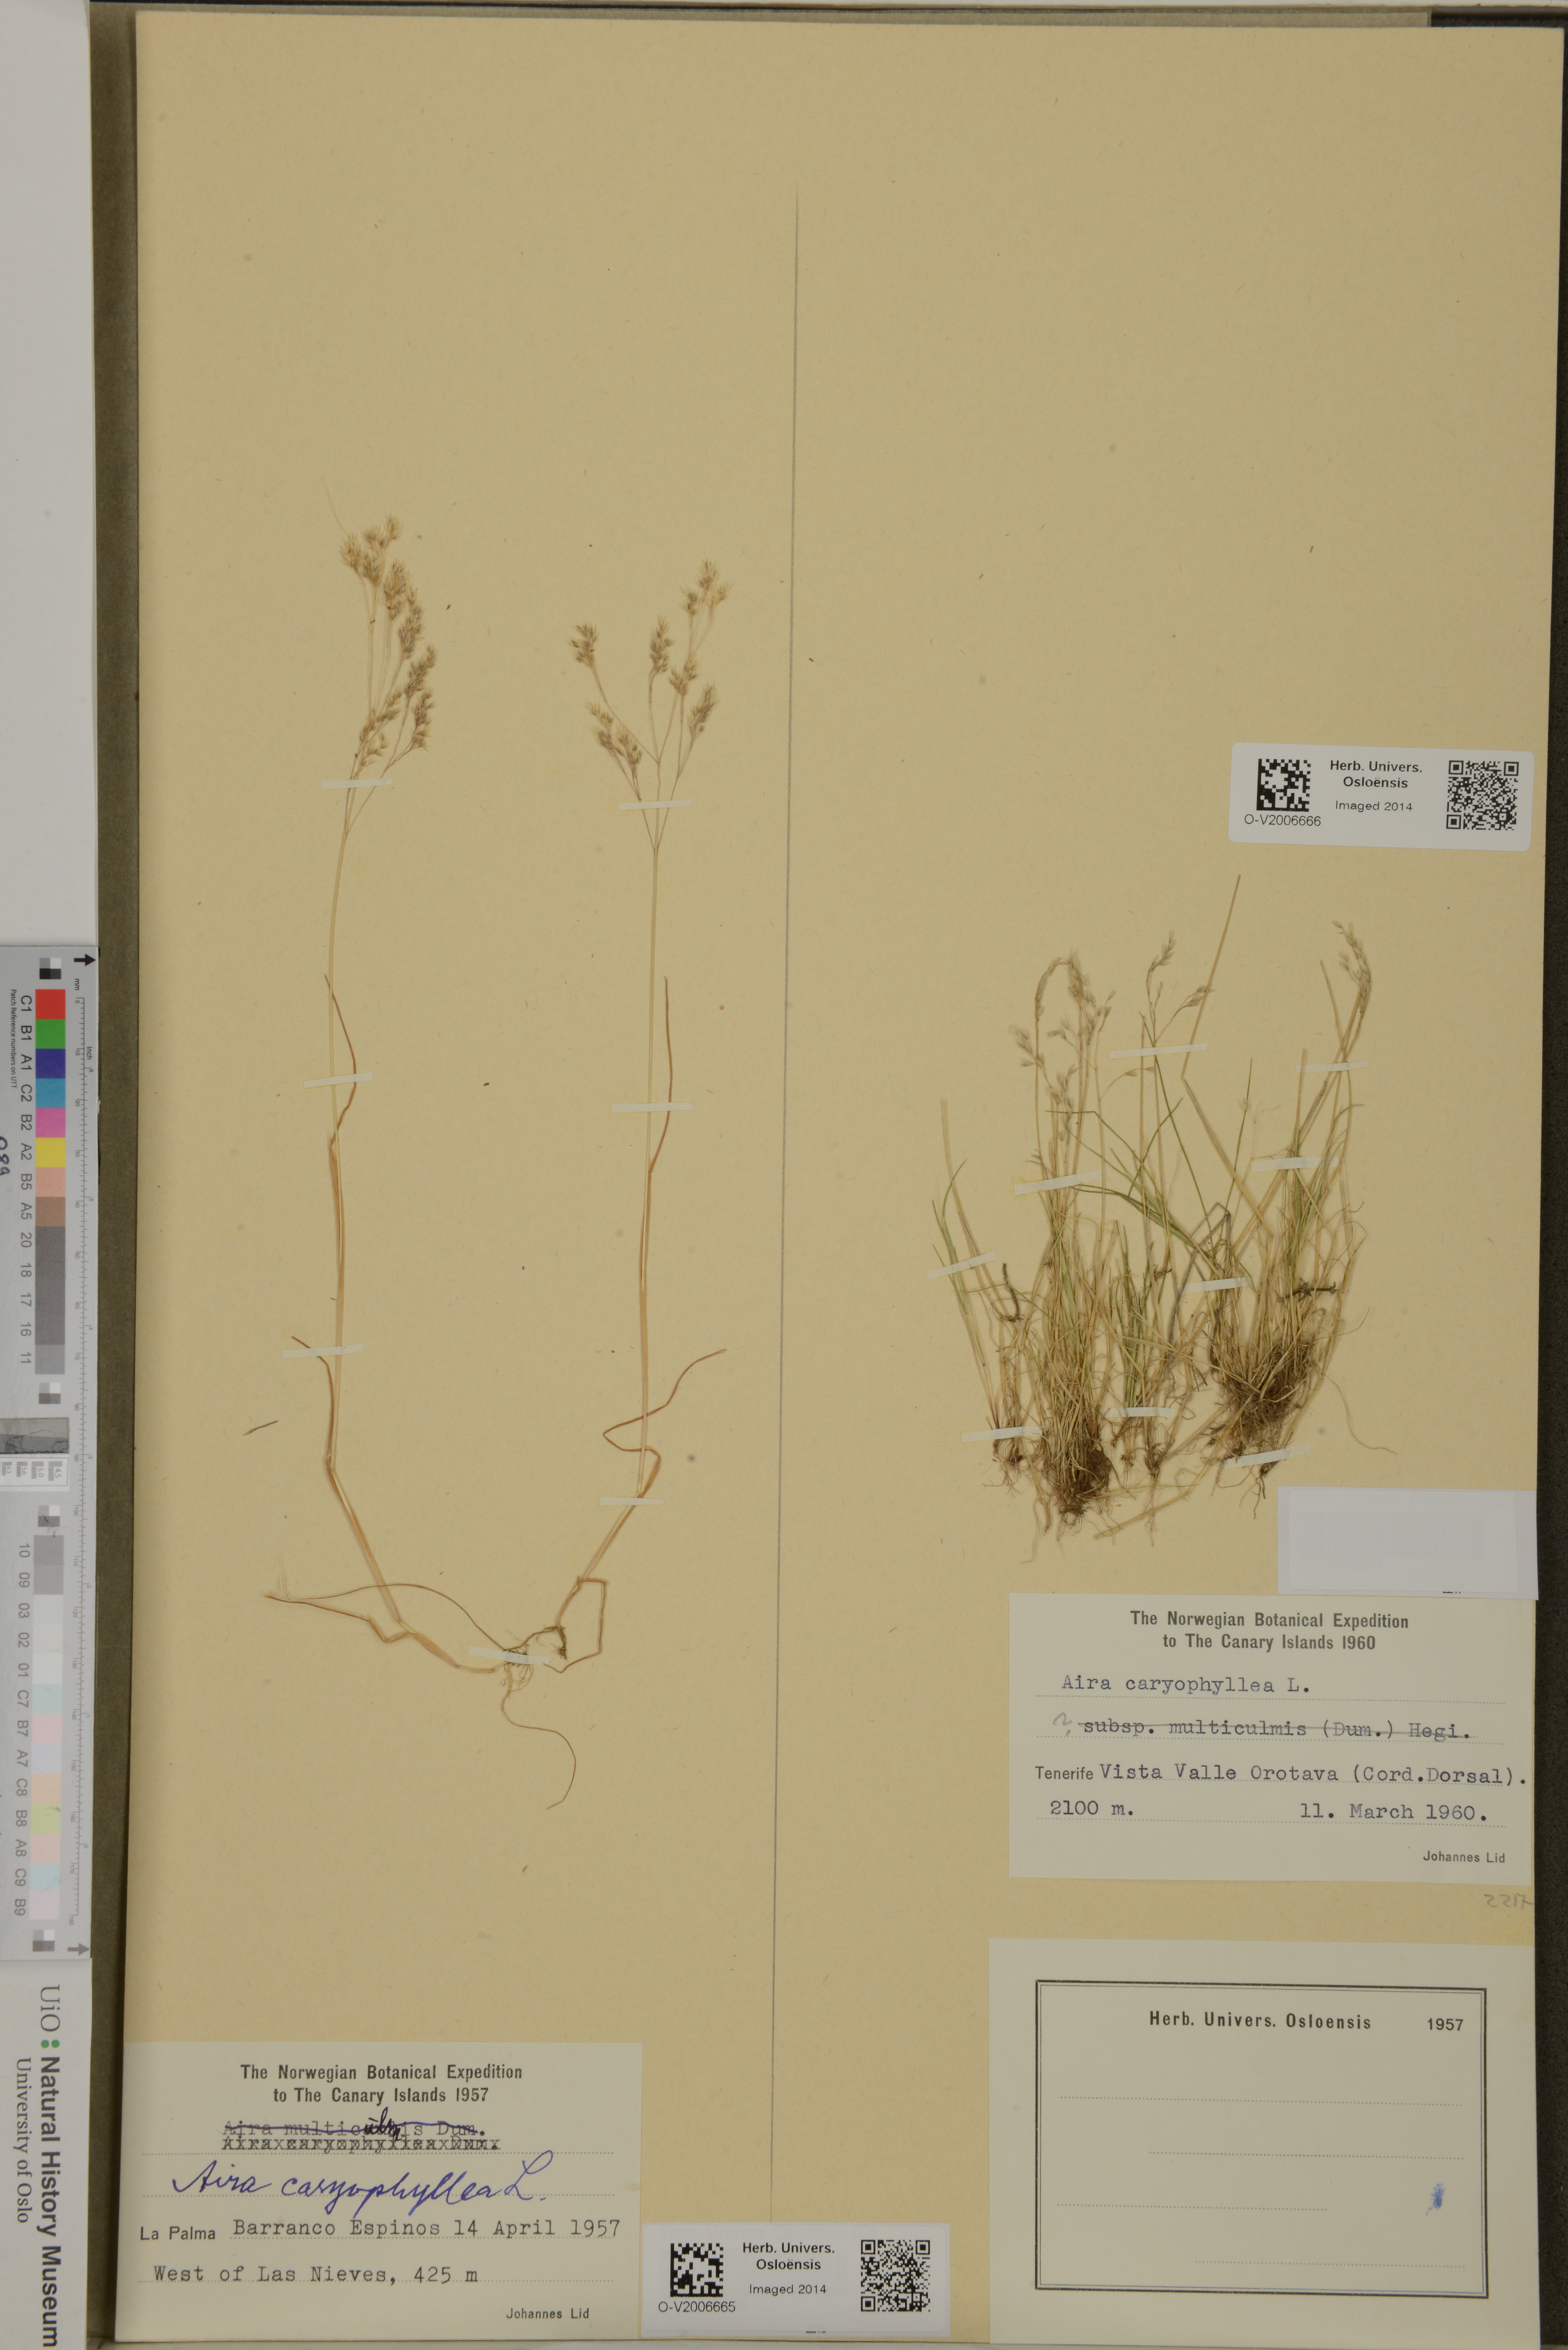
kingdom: Plantae
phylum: Tracheophyta
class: Liliopsida
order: Poales
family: Poaceae
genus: Aira
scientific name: Aira caryophyllea
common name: Silver hairgrass
